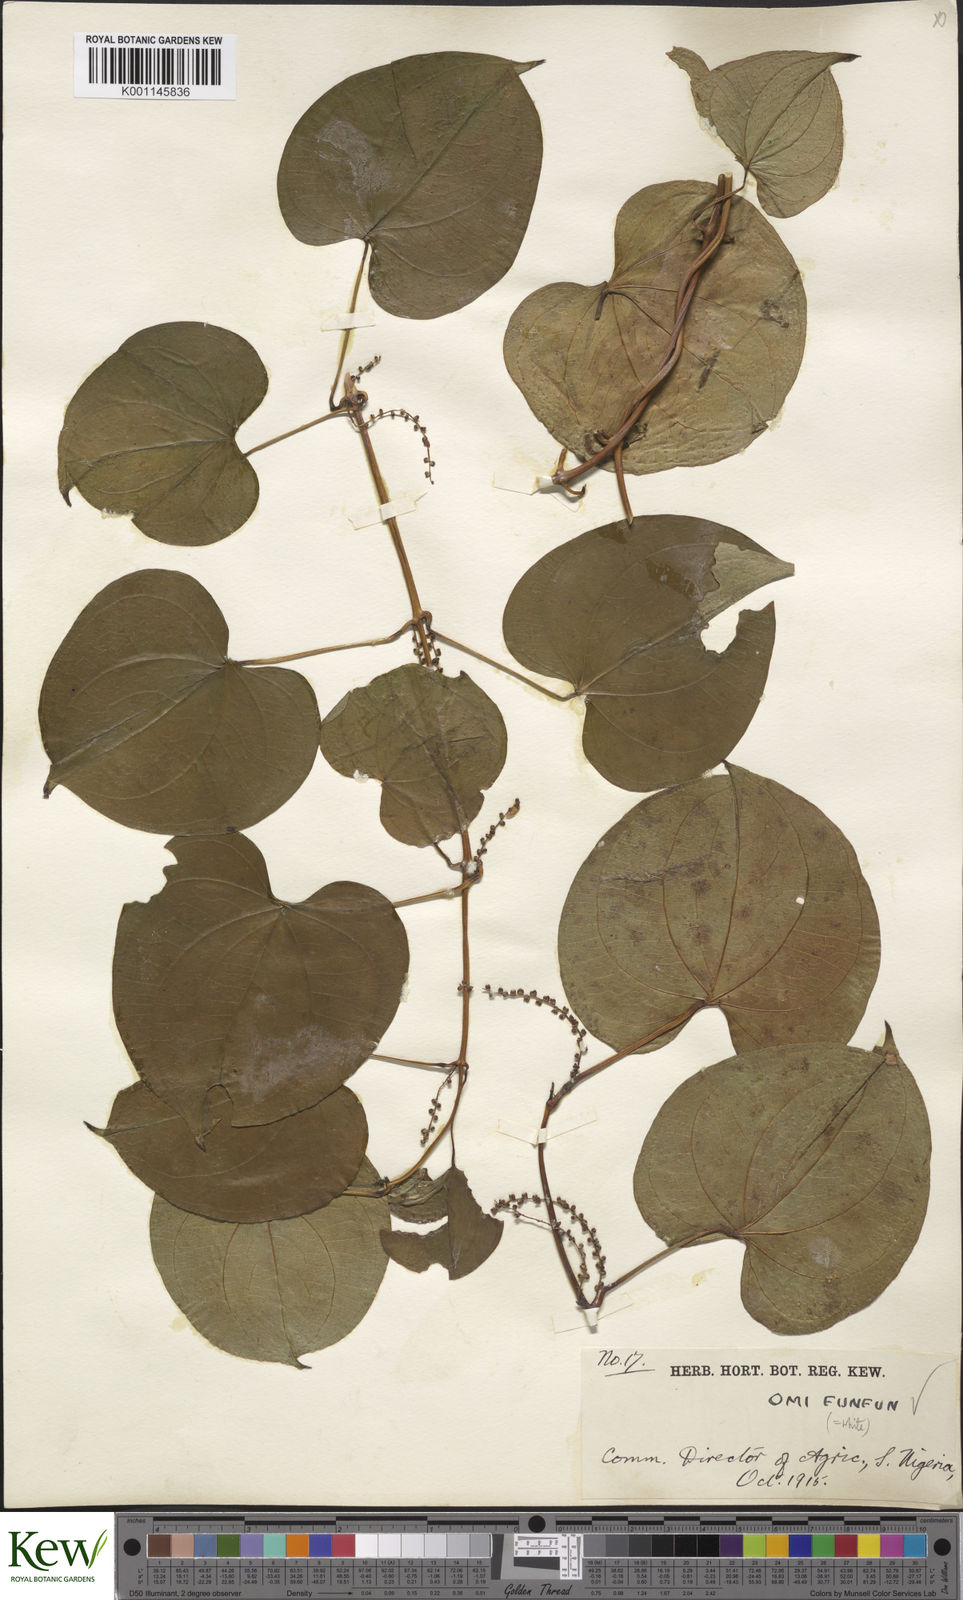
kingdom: Plantae
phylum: Tracheophyta
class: Liliopsida
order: Dioscoreales
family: Dioscoreaceae
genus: Dioscorea
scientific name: Dioscorea cayenensis
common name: Attoto yam
